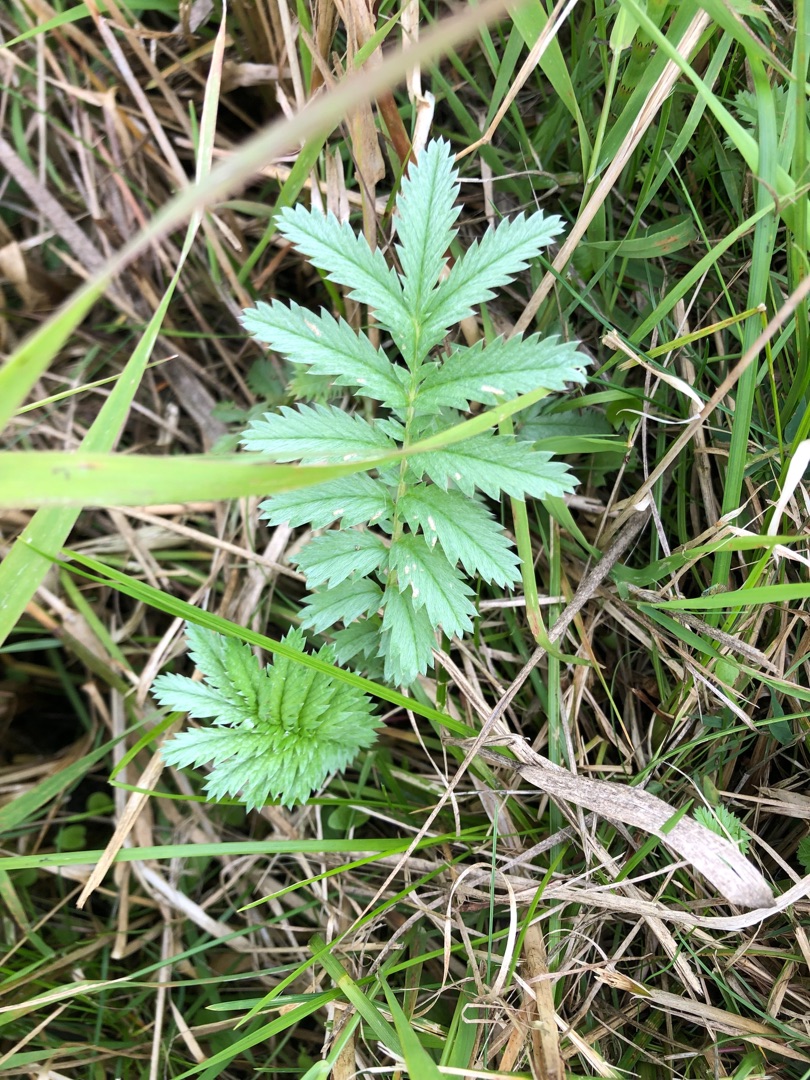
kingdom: Plantae
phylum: Tracheophyta
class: Magnoliopsida
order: Rosales
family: Rosaceae
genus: Argentina
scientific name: Argentina anserina
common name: Gåsepotentil
